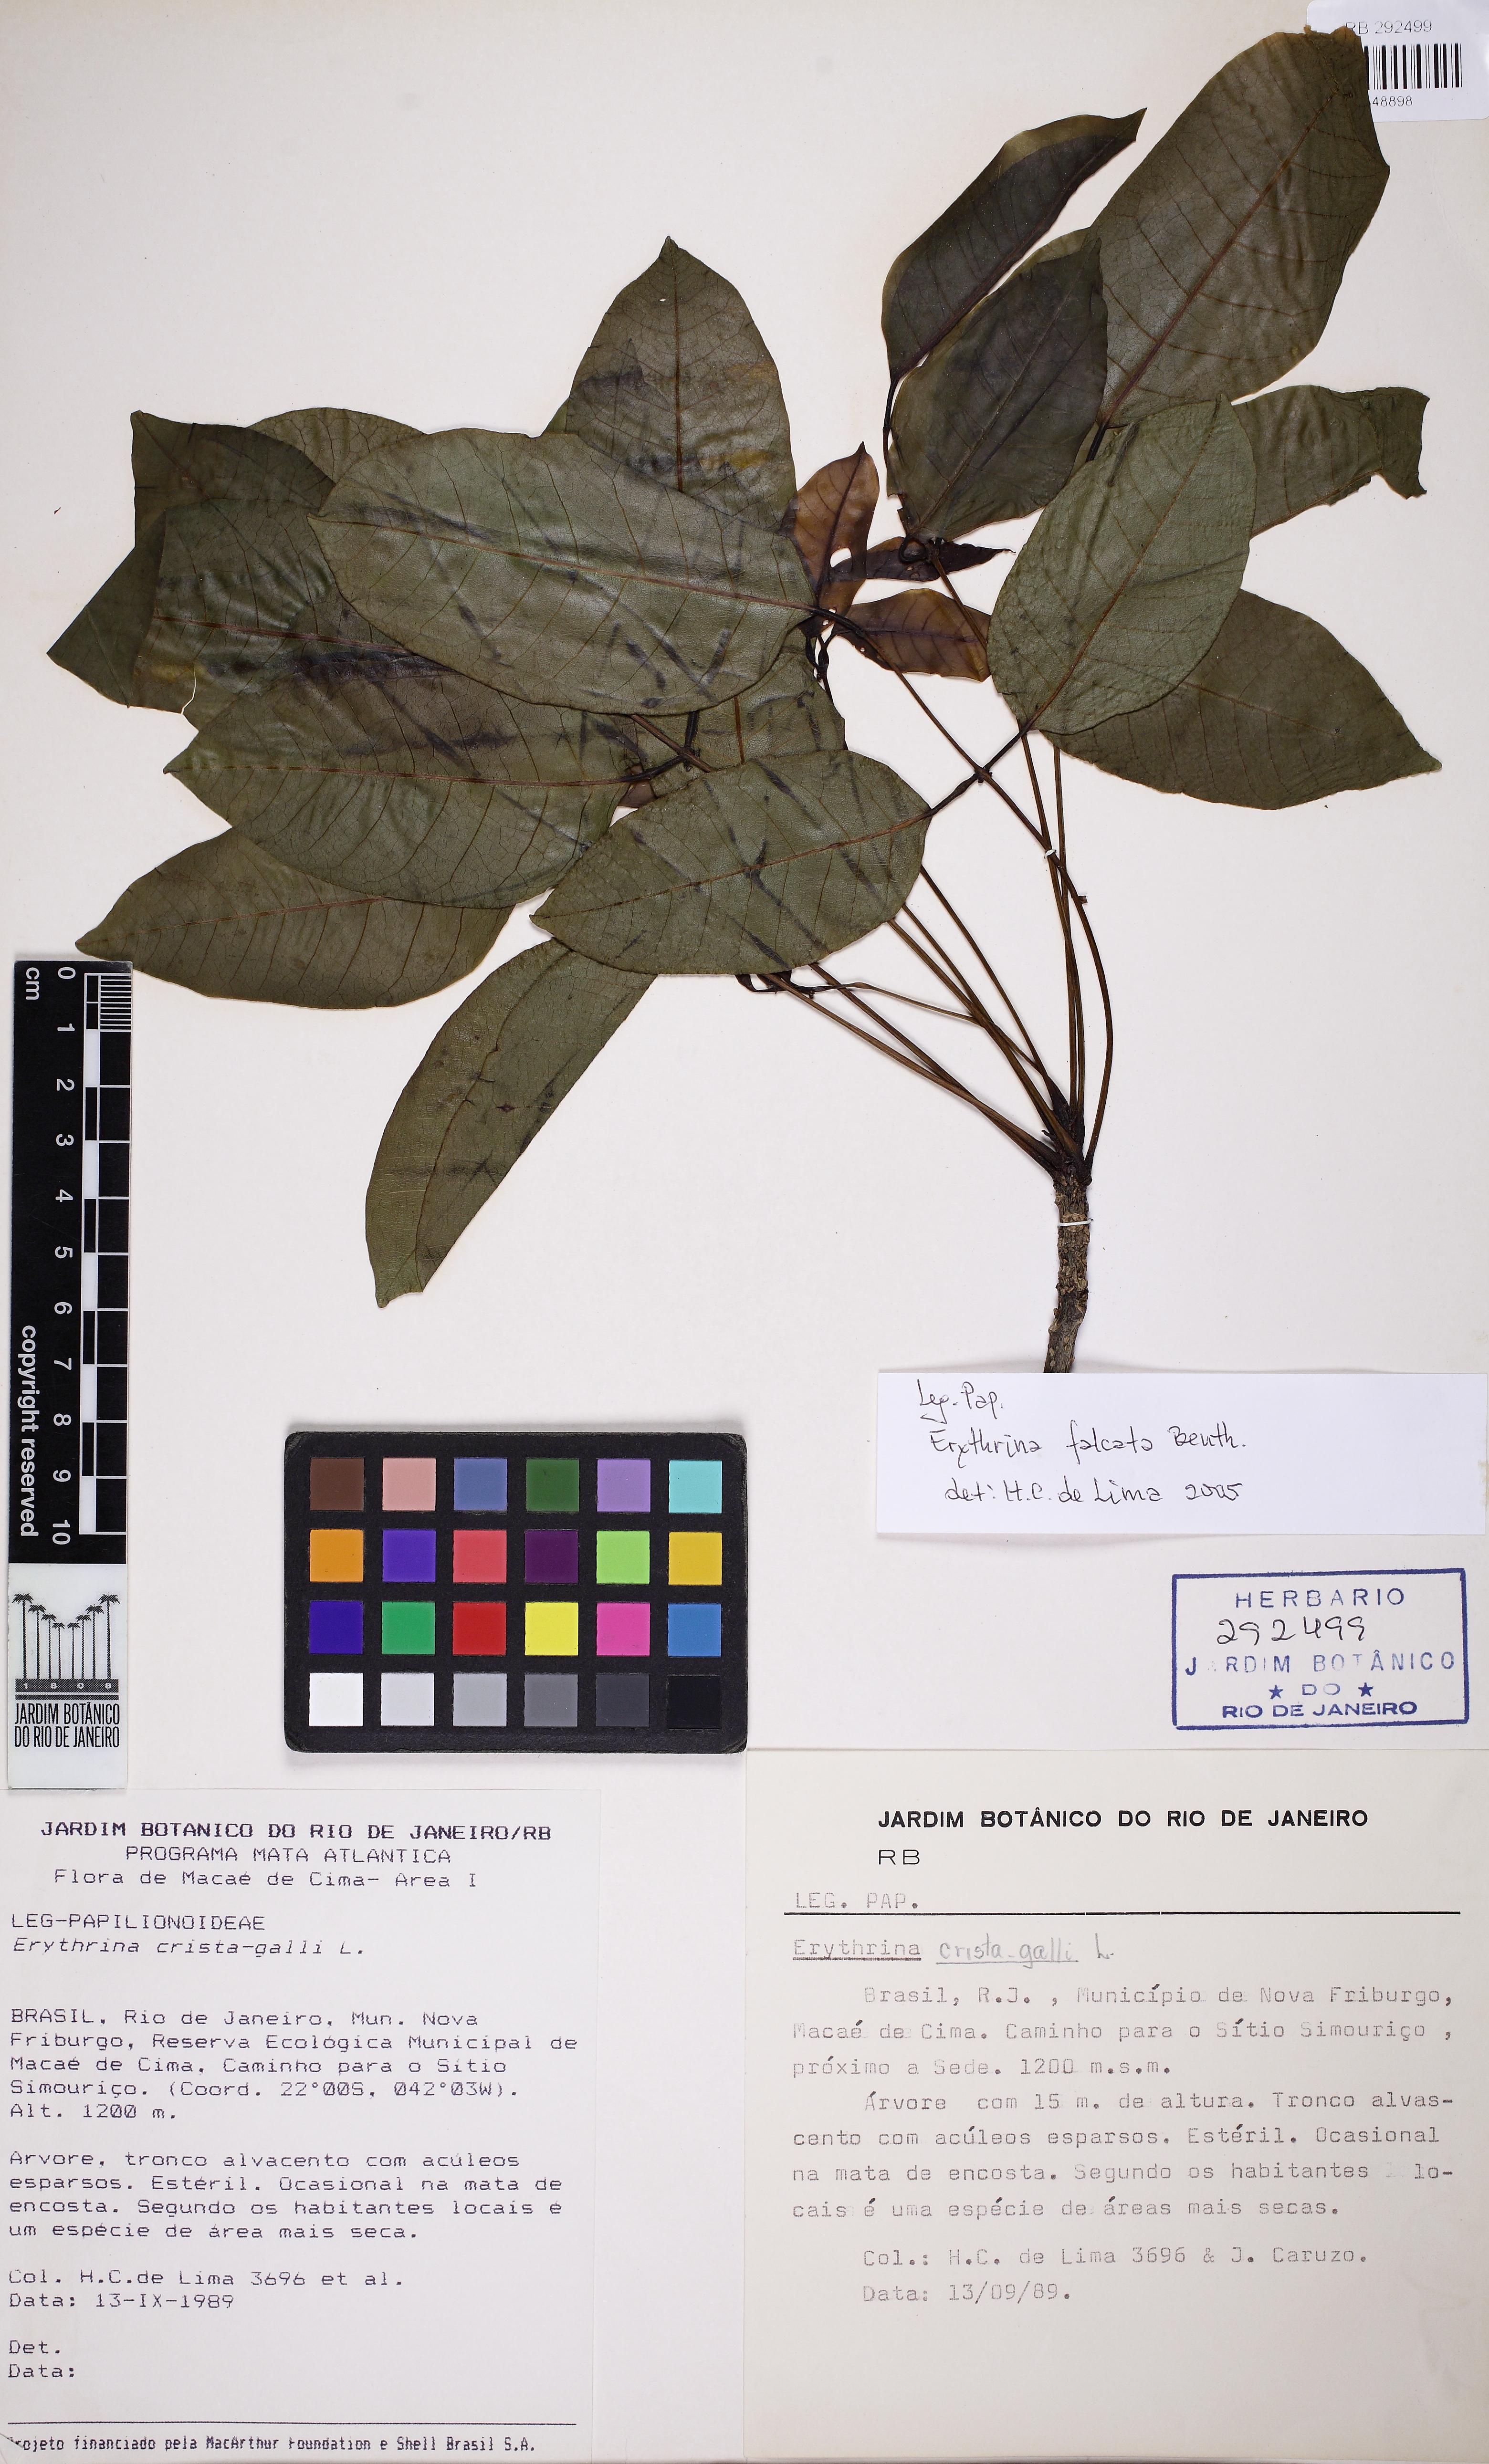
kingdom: Plantae
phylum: Tracheophyta
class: Magnoliopsida
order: Fabales
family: Fabaceae
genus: Erythrina
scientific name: Erythrina falcata
